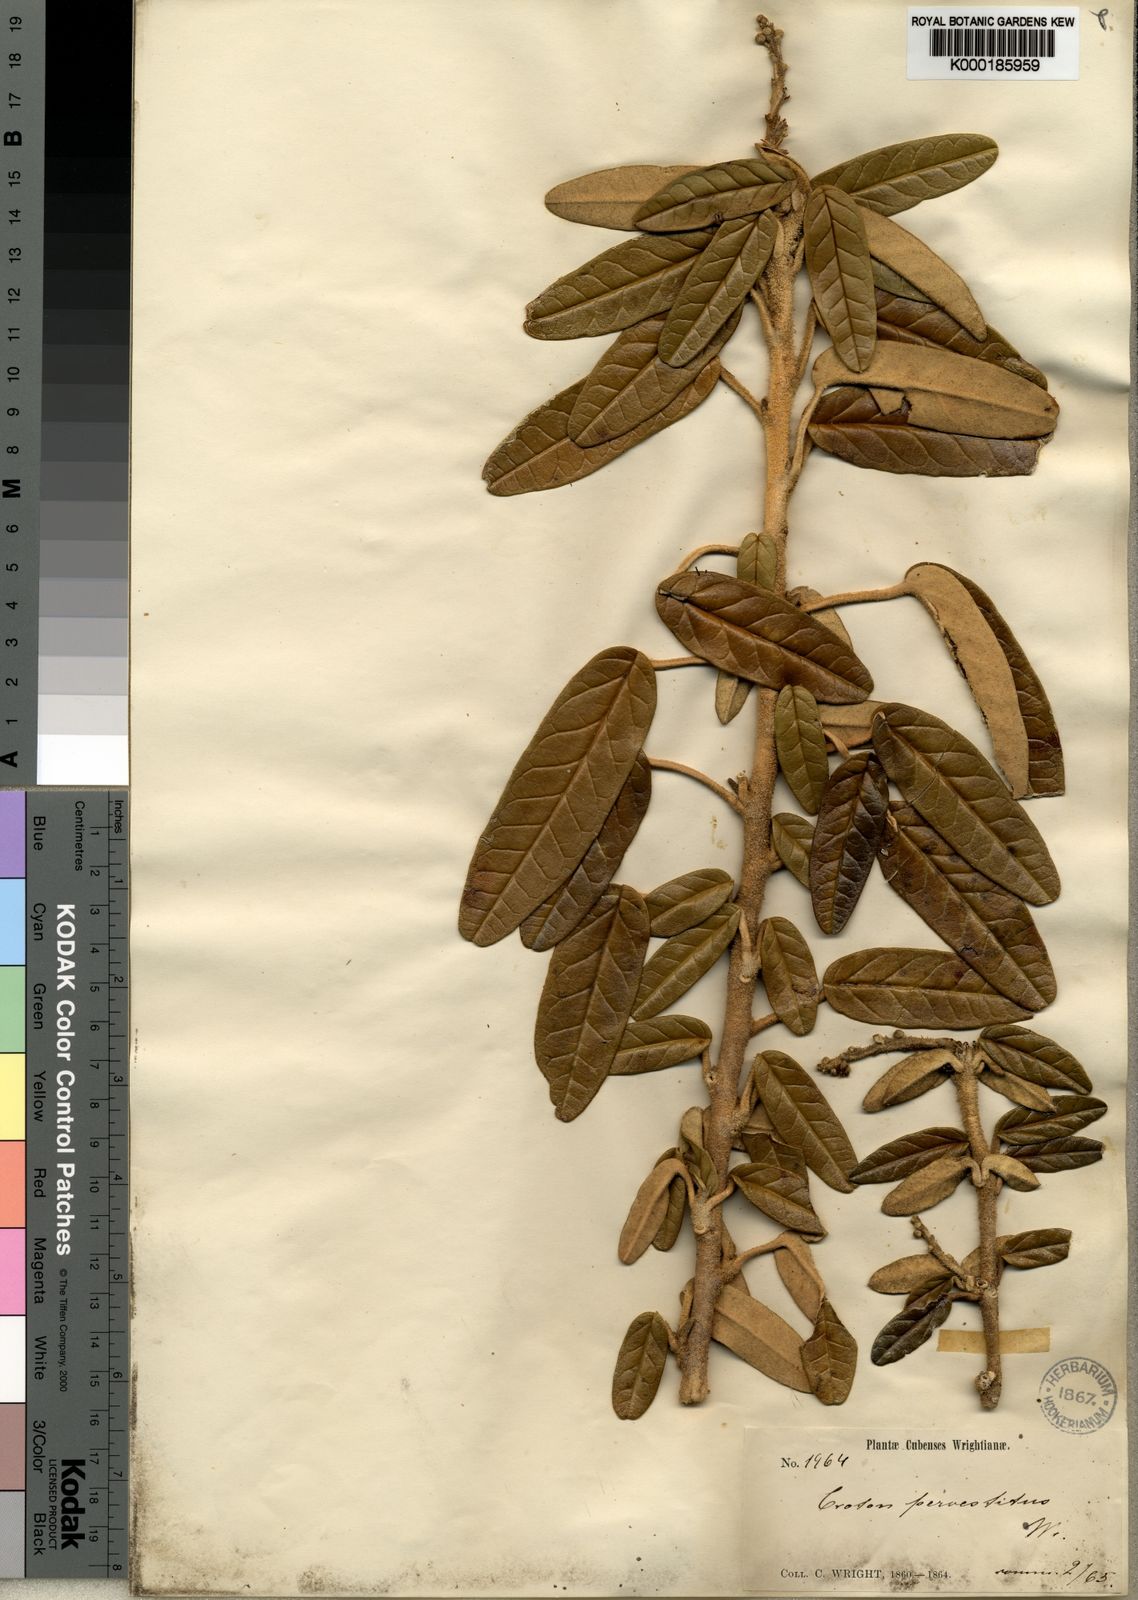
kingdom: Plantae
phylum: Tracheophyta
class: Magnoliopsida
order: Malpighiales
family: Euphorbiaceae
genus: Croton
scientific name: Croton pervestitus
